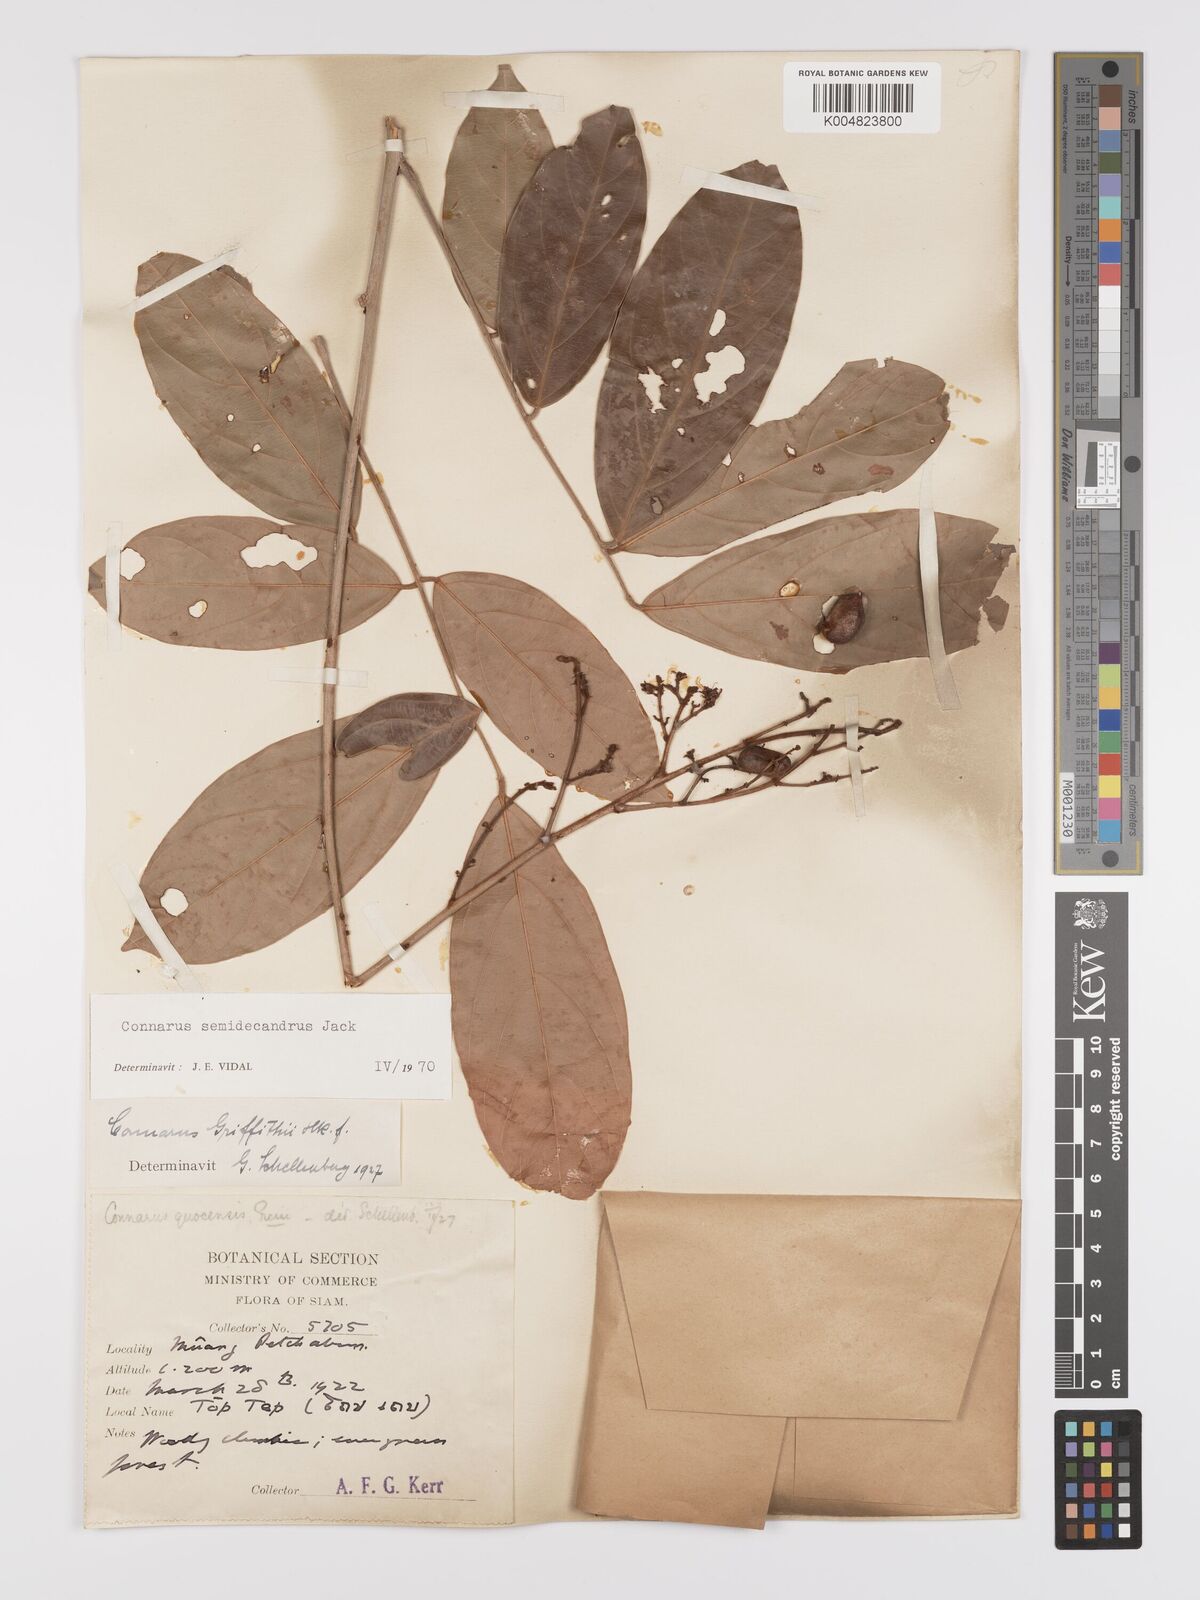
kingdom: Plantae
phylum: Tracheophyta
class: Magnoliopsida
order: Oxalidales
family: Connaraceae
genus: Connarus
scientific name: Connarus semidecandrus
